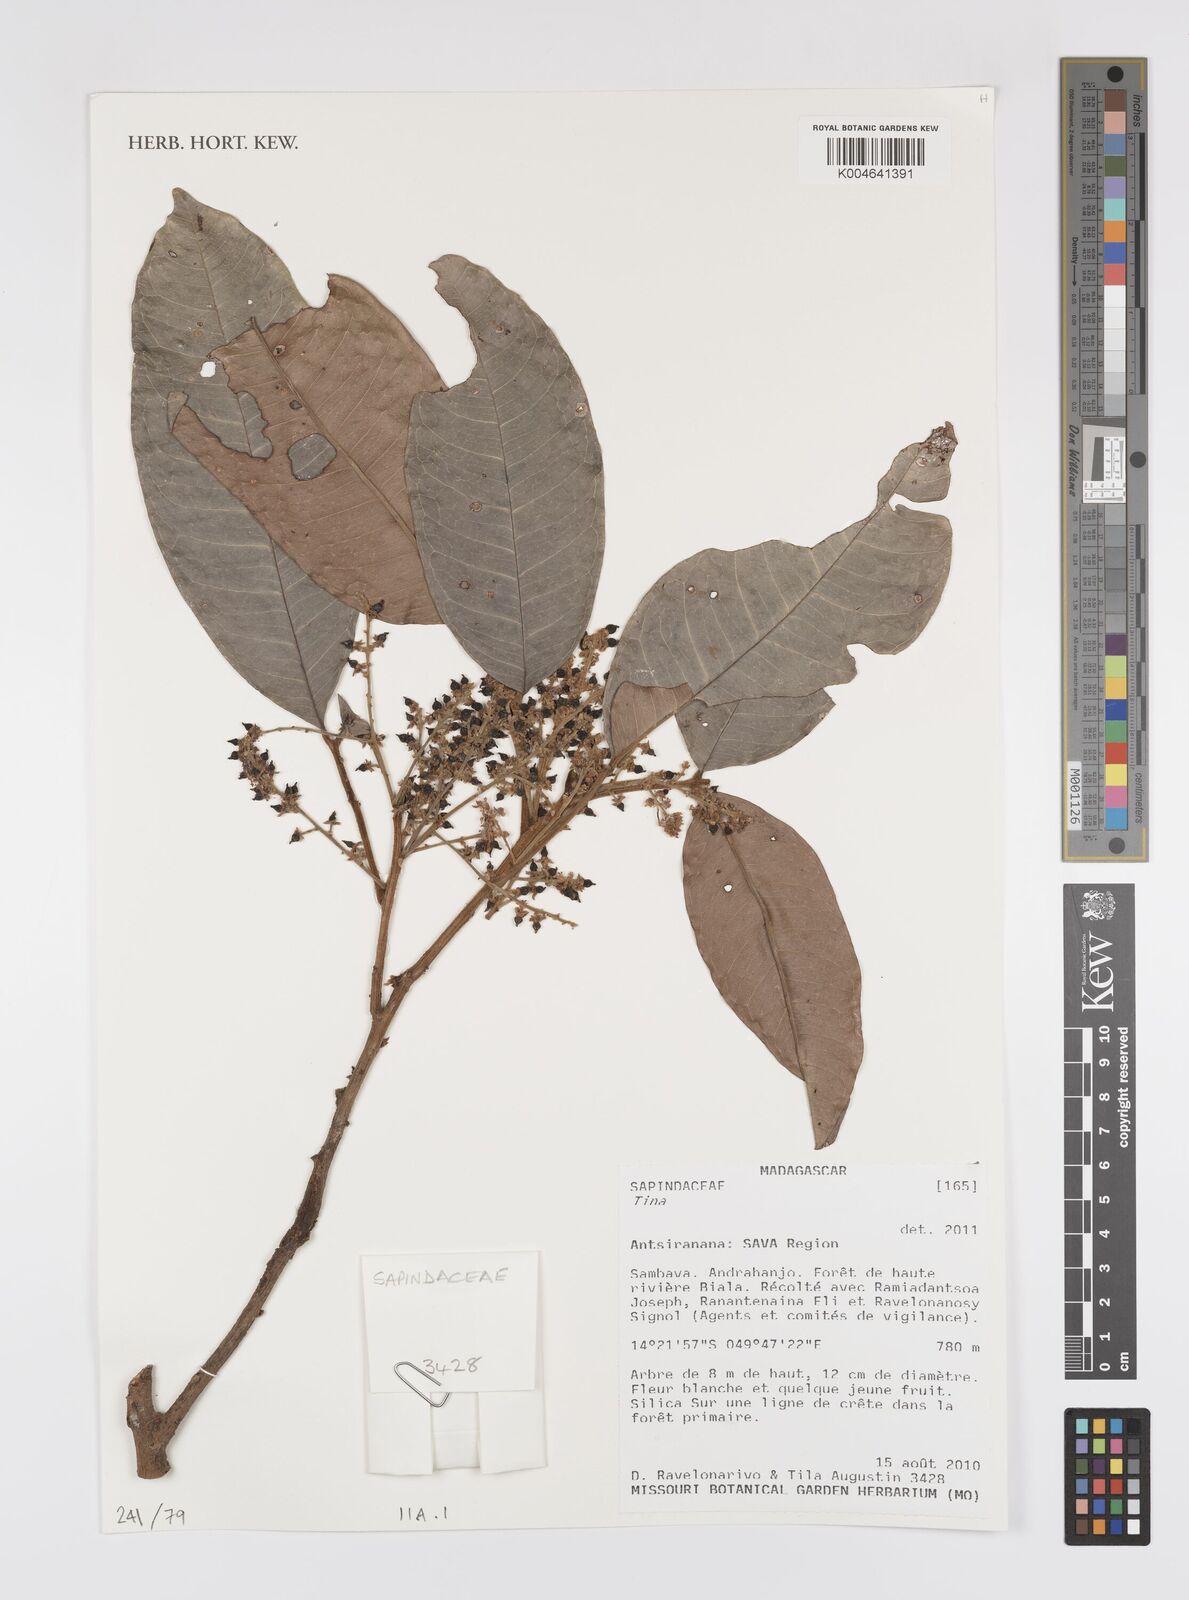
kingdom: Plantae
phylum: Tracheophyta
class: Magnoliopsida
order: Sapindales
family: Sapindaceae
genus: Tina
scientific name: Tina
